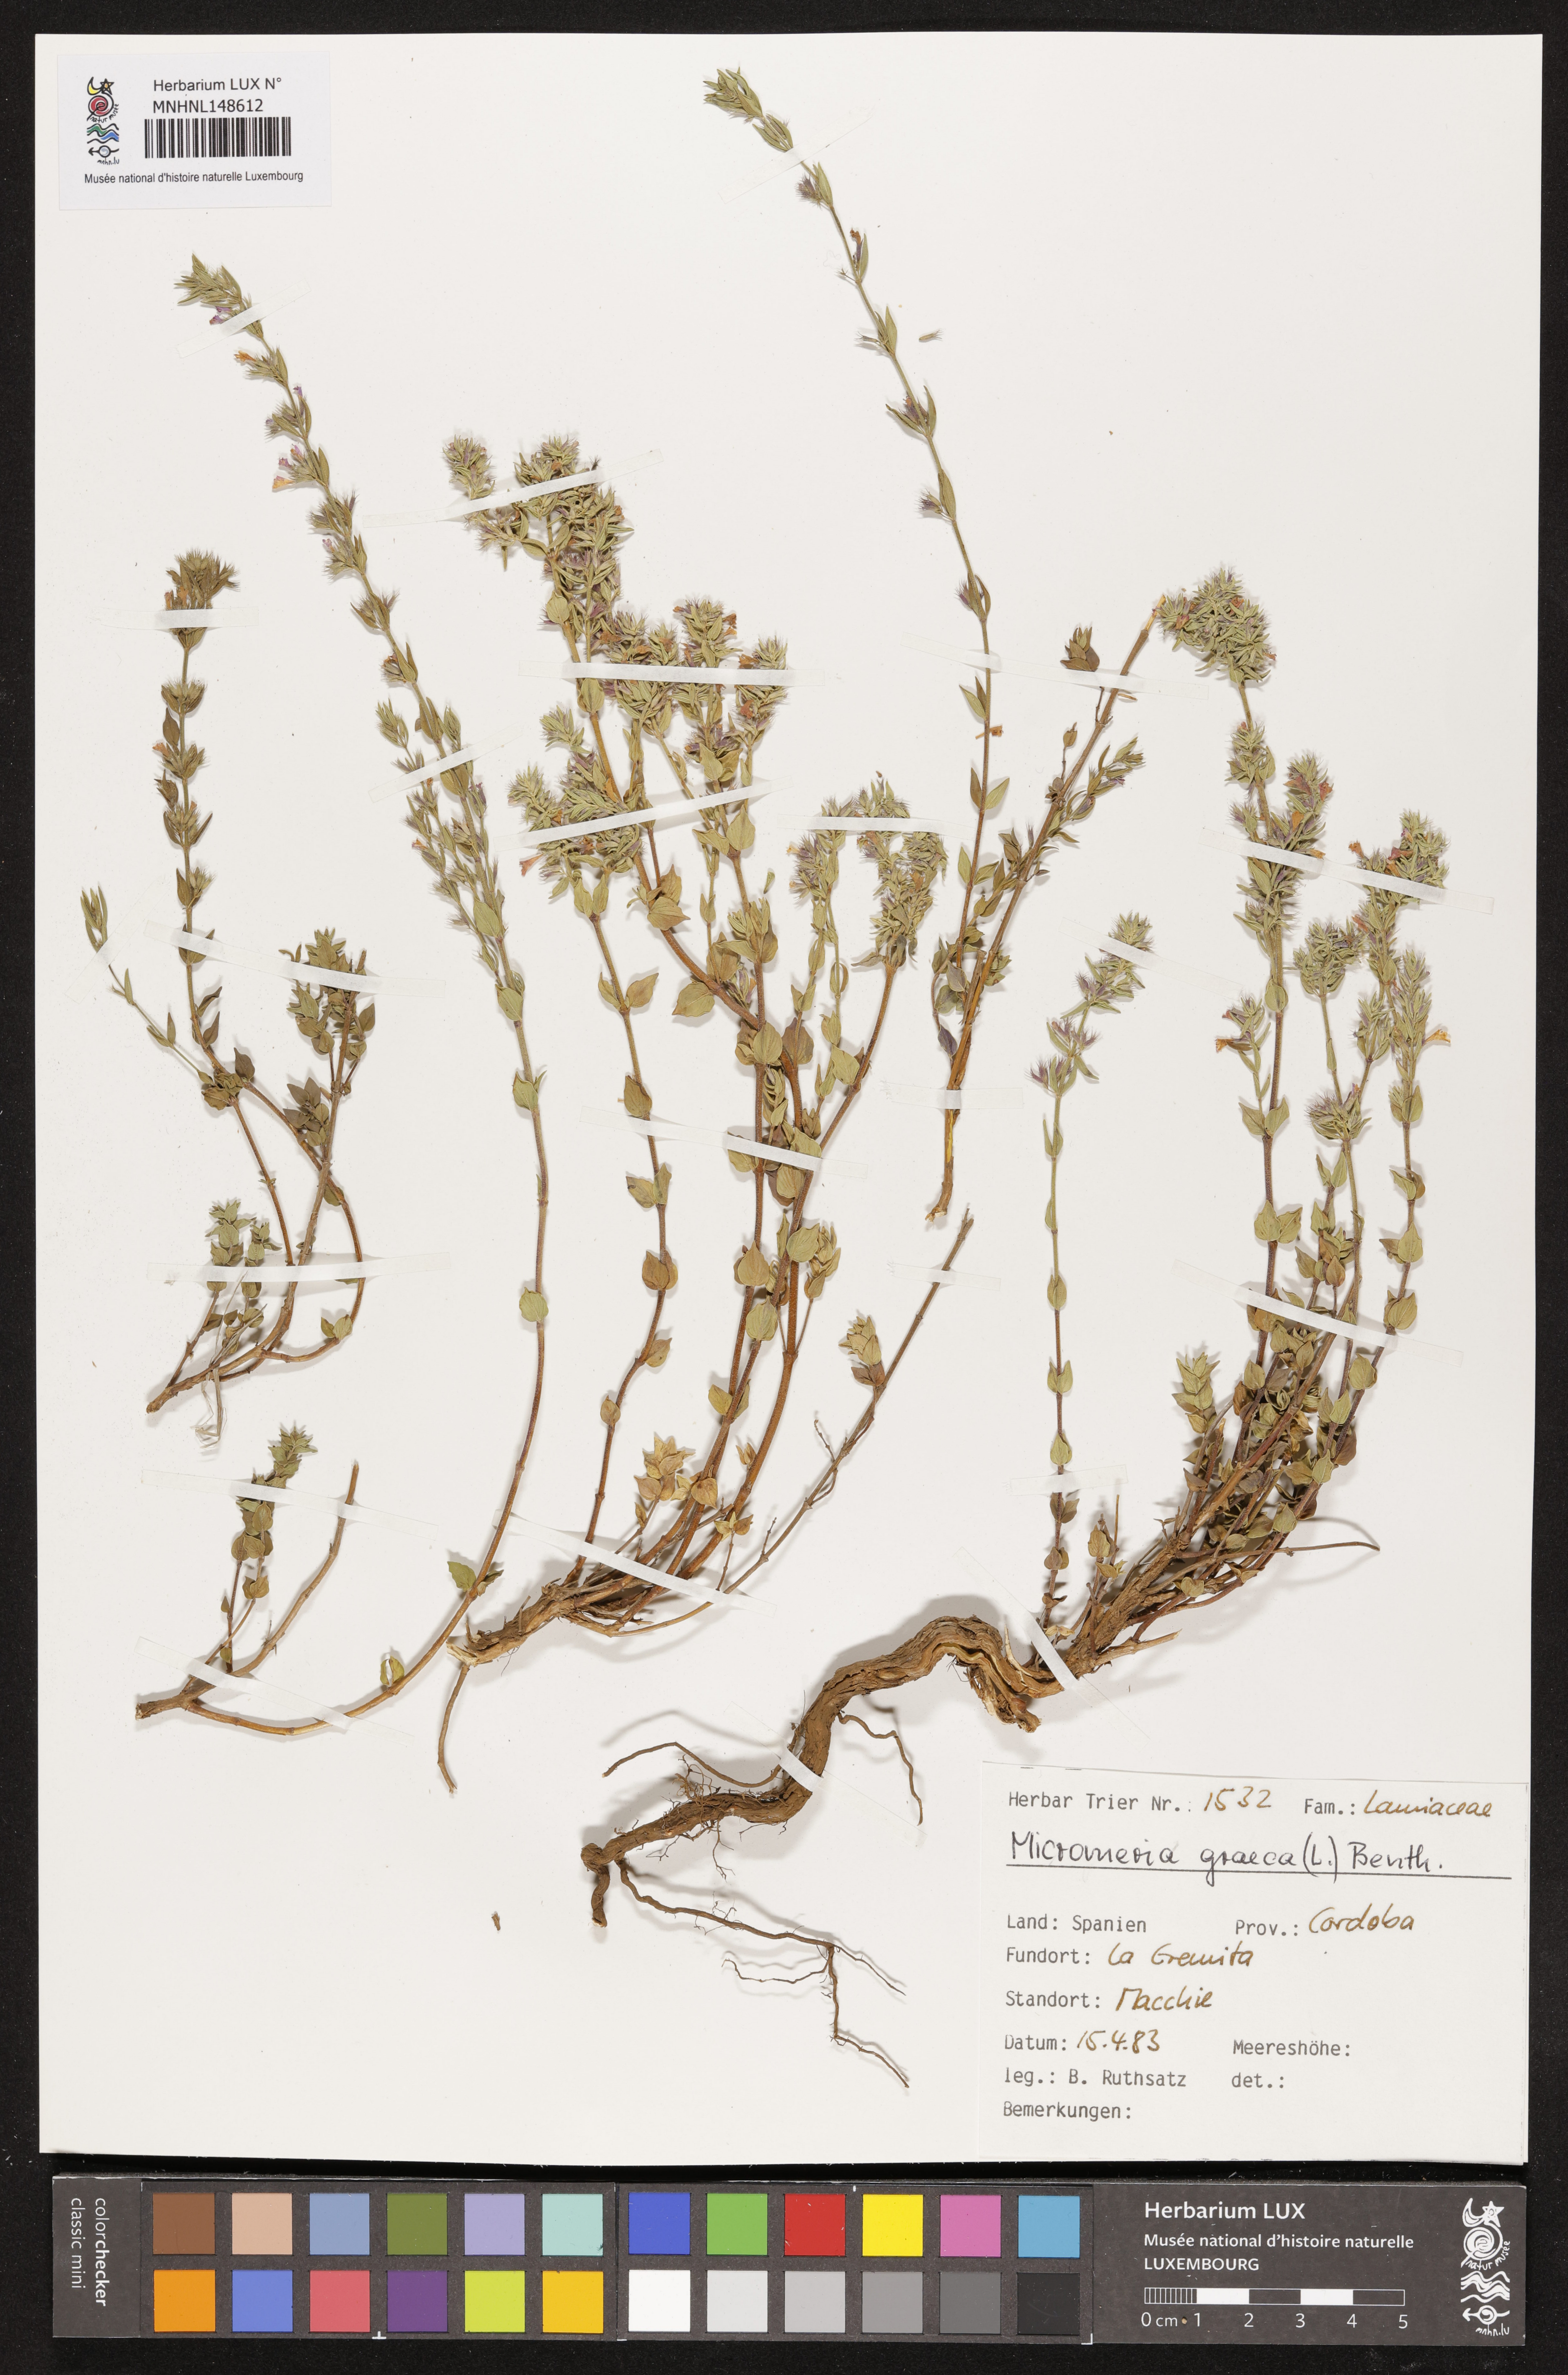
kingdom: Plantae
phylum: Tracheophyta
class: Magnoliopsida
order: Lamiales
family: Lamiaceae
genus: Micromeria
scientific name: Micromeria graeca
